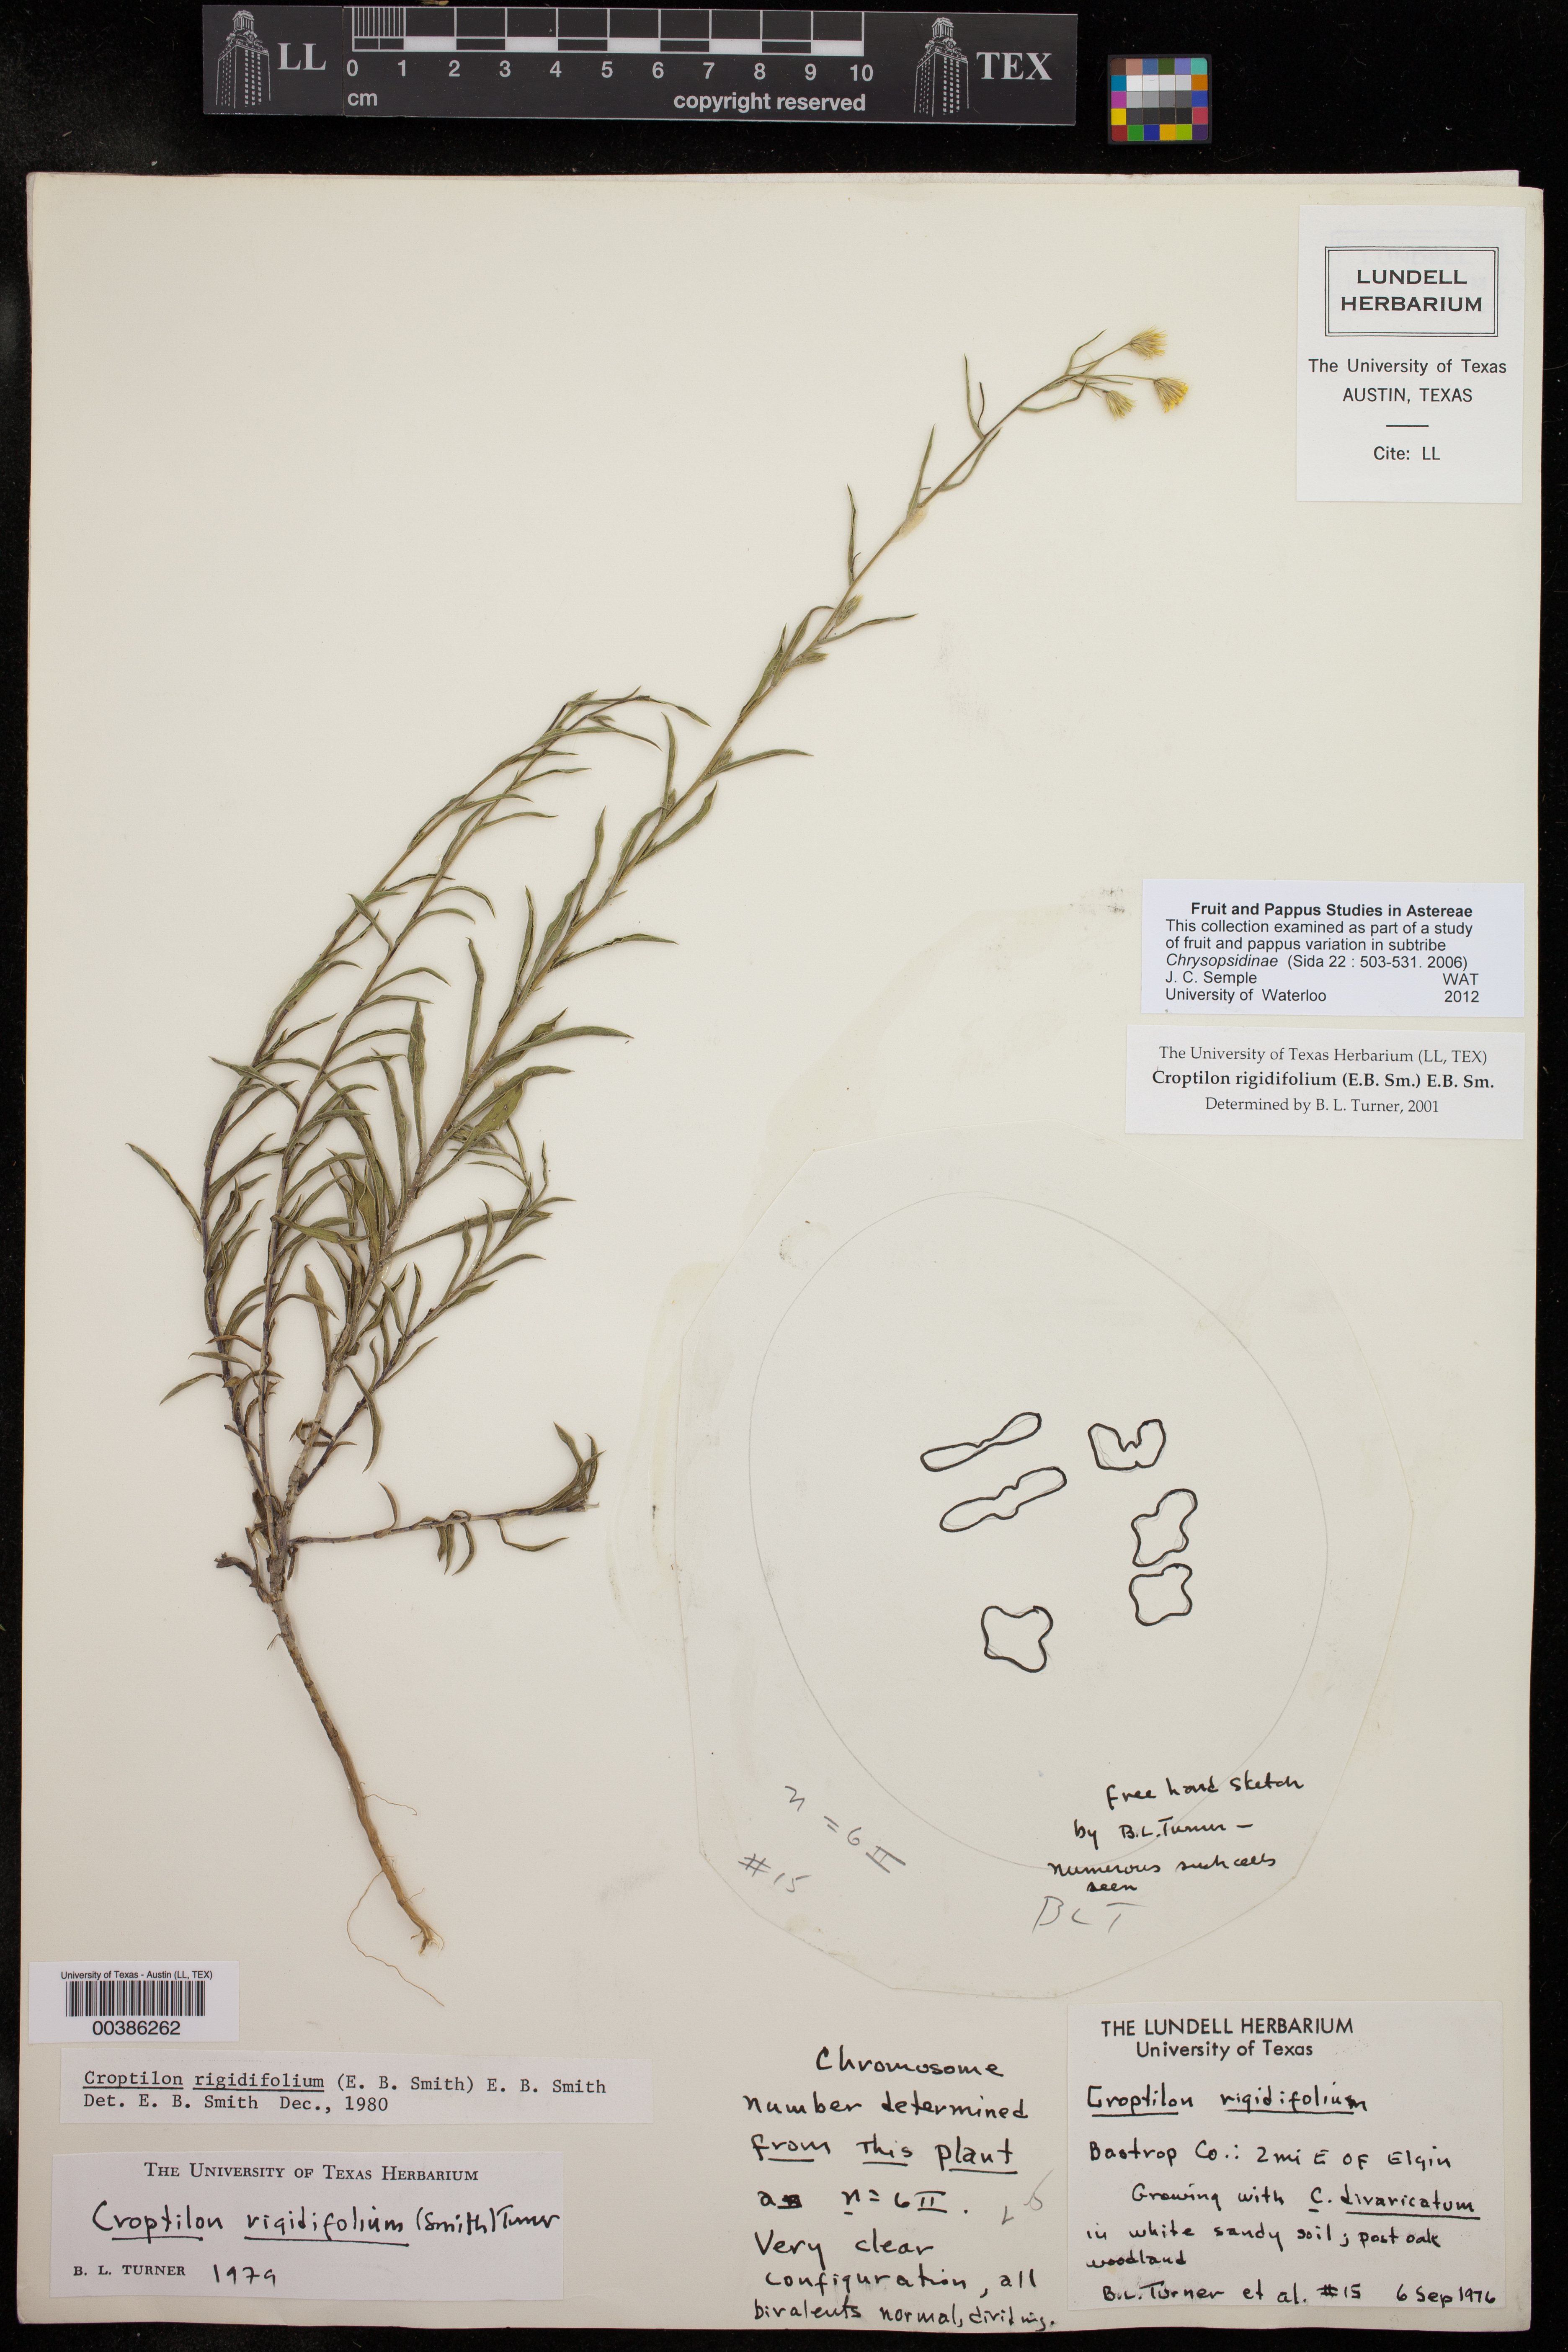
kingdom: Plantae
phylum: Tracheophyta
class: Magnoliopsida
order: Asterales
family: Asteraceae
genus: Croptilon
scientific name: Croptilon rigidifolium
